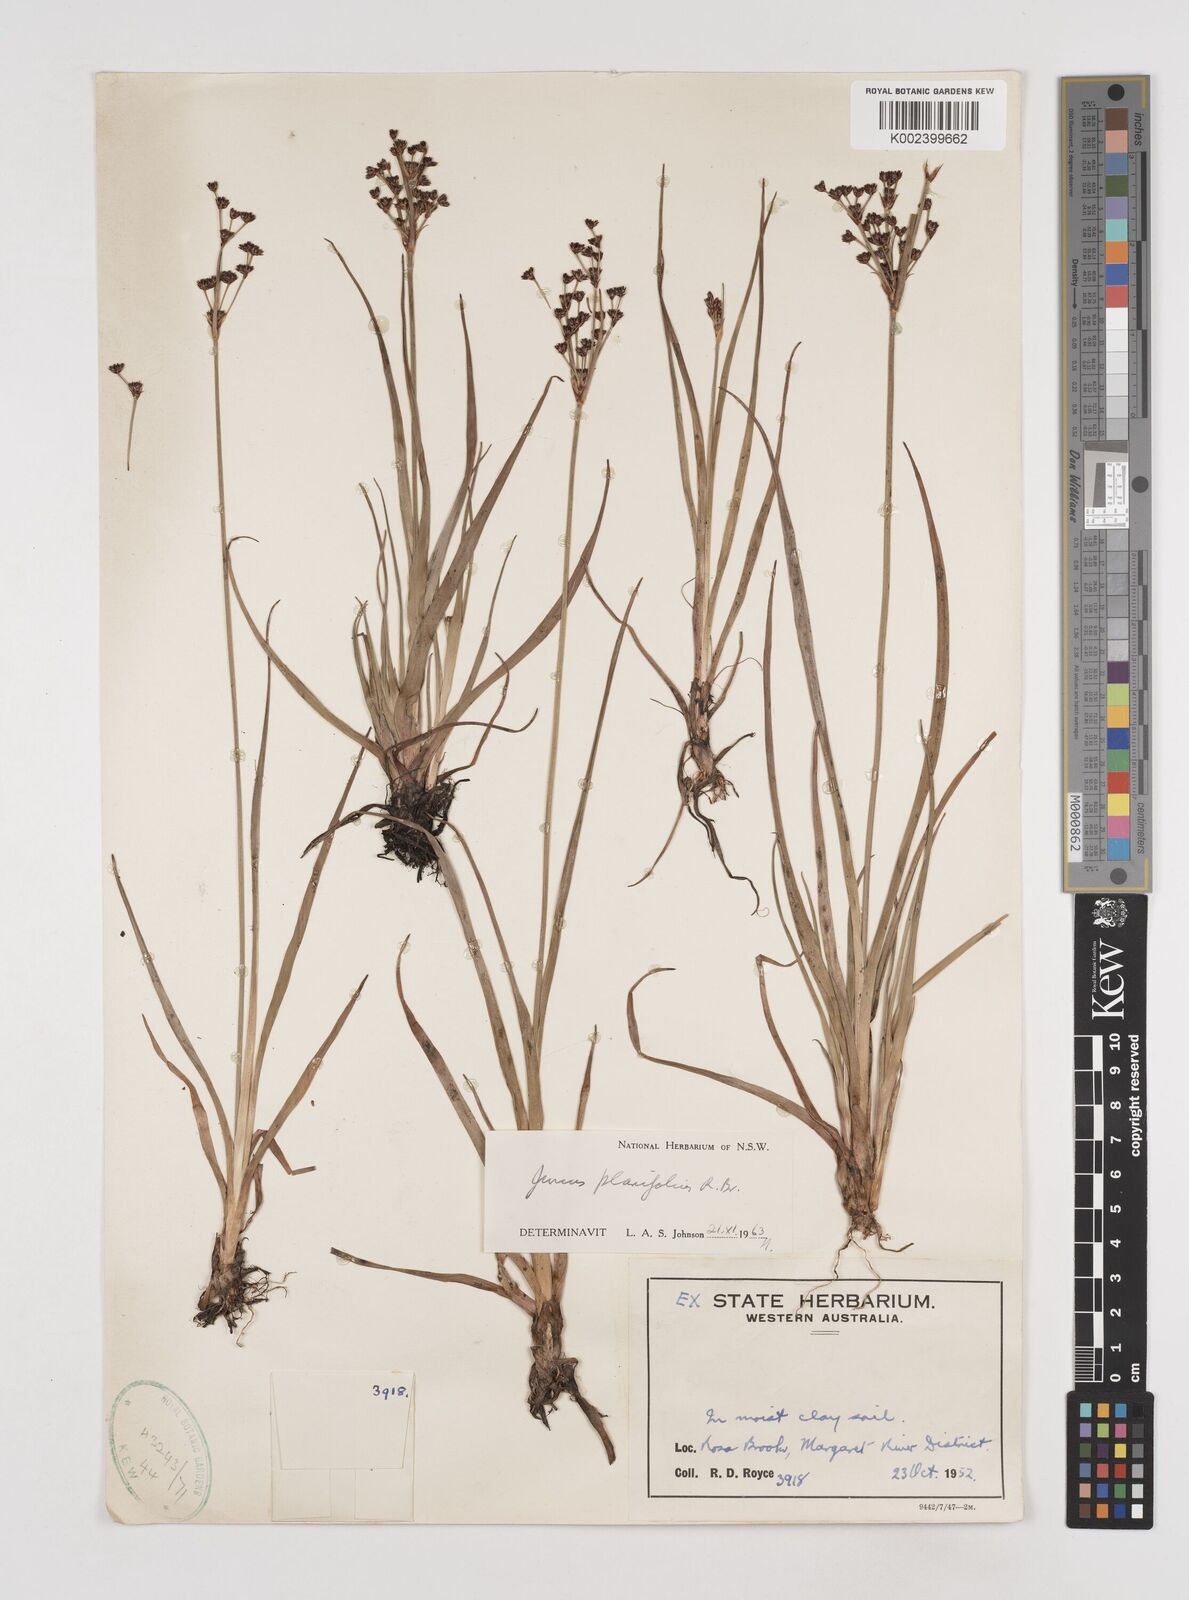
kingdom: Plantae
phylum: Tracheophyta
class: Liliopsida
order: Poales
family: Juncaceae
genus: Juncus
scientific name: Juncus planifolius
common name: Broadleaf rush
